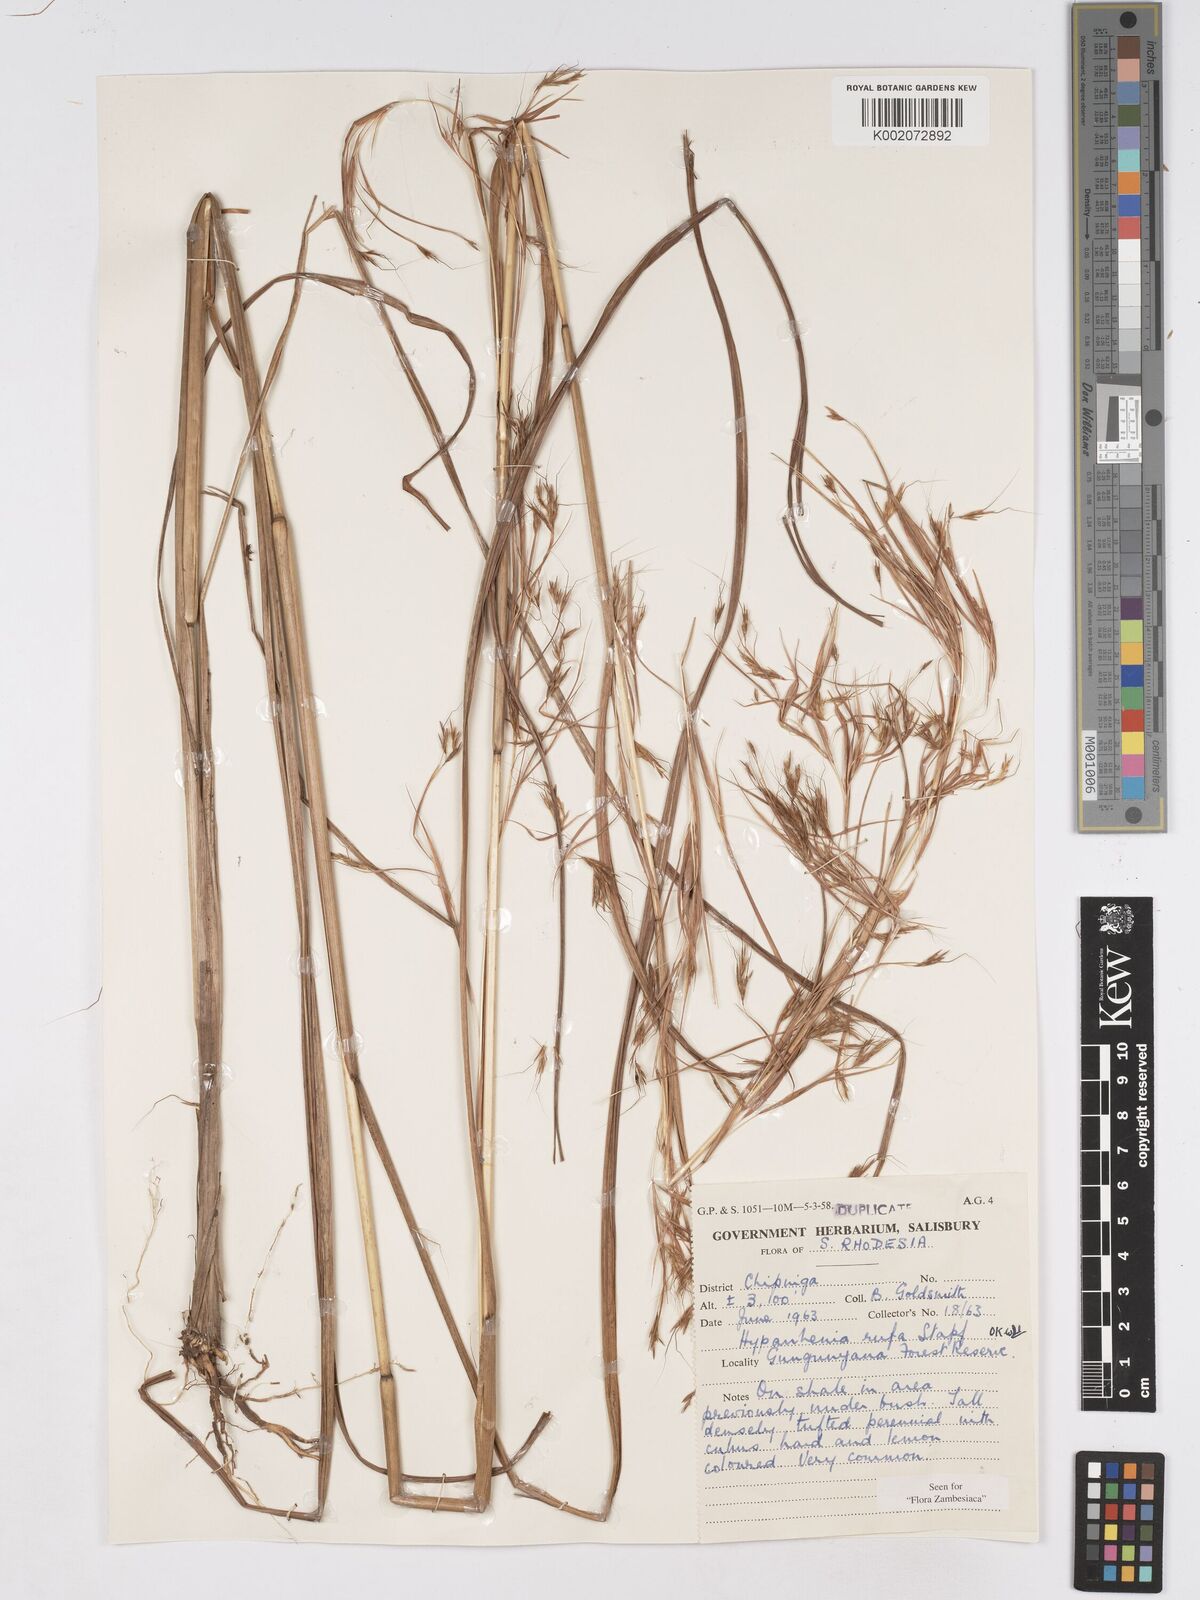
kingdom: Plantae
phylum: Tracheophyta
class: Liliopsida
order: Poales
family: Poaceae
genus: Hyparrhenia
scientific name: Hyparrhenia rufa
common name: Jaraguagrass
